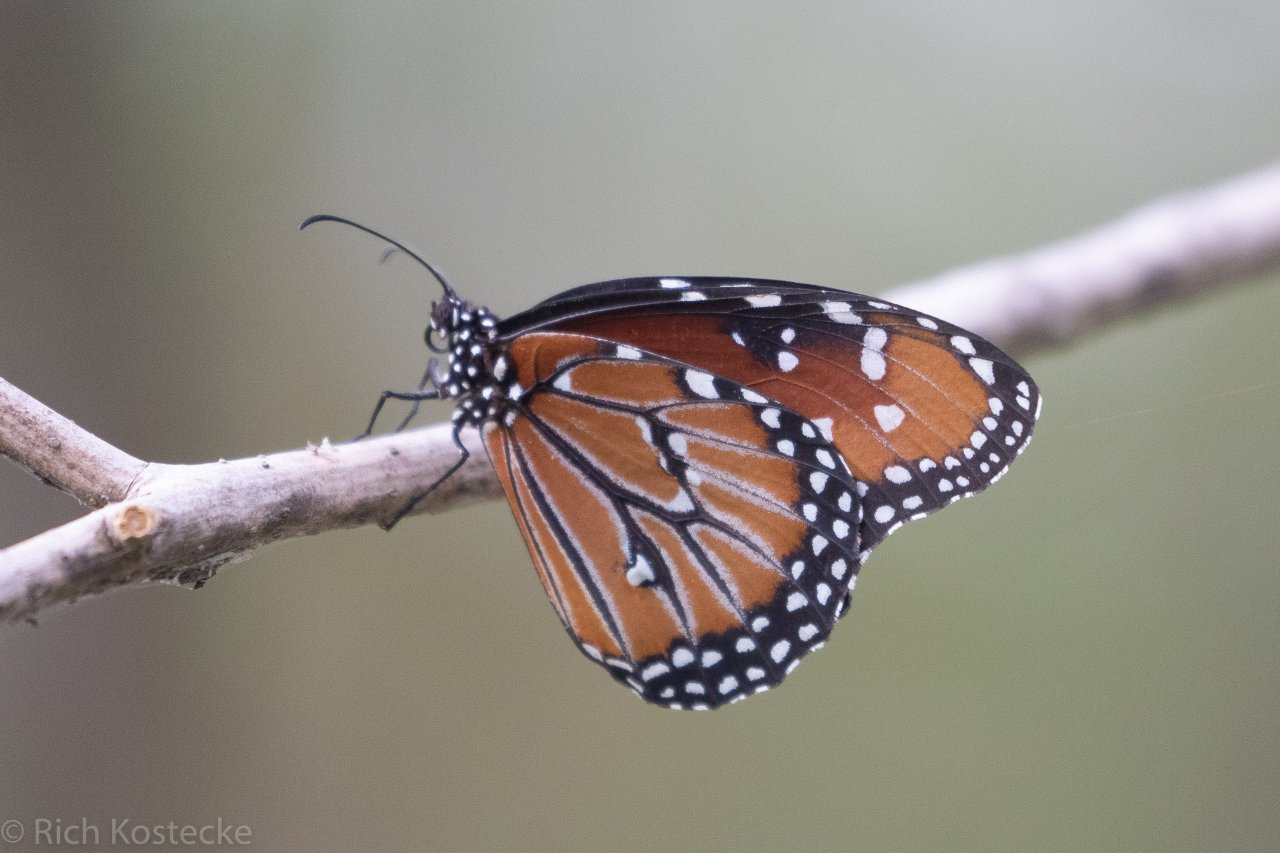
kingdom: Animalia
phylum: Arthropoda
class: Insecta
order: Lepidoptera
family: Nymphalidae
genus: Danaus
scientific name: Danaus gilippus
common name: Queen
